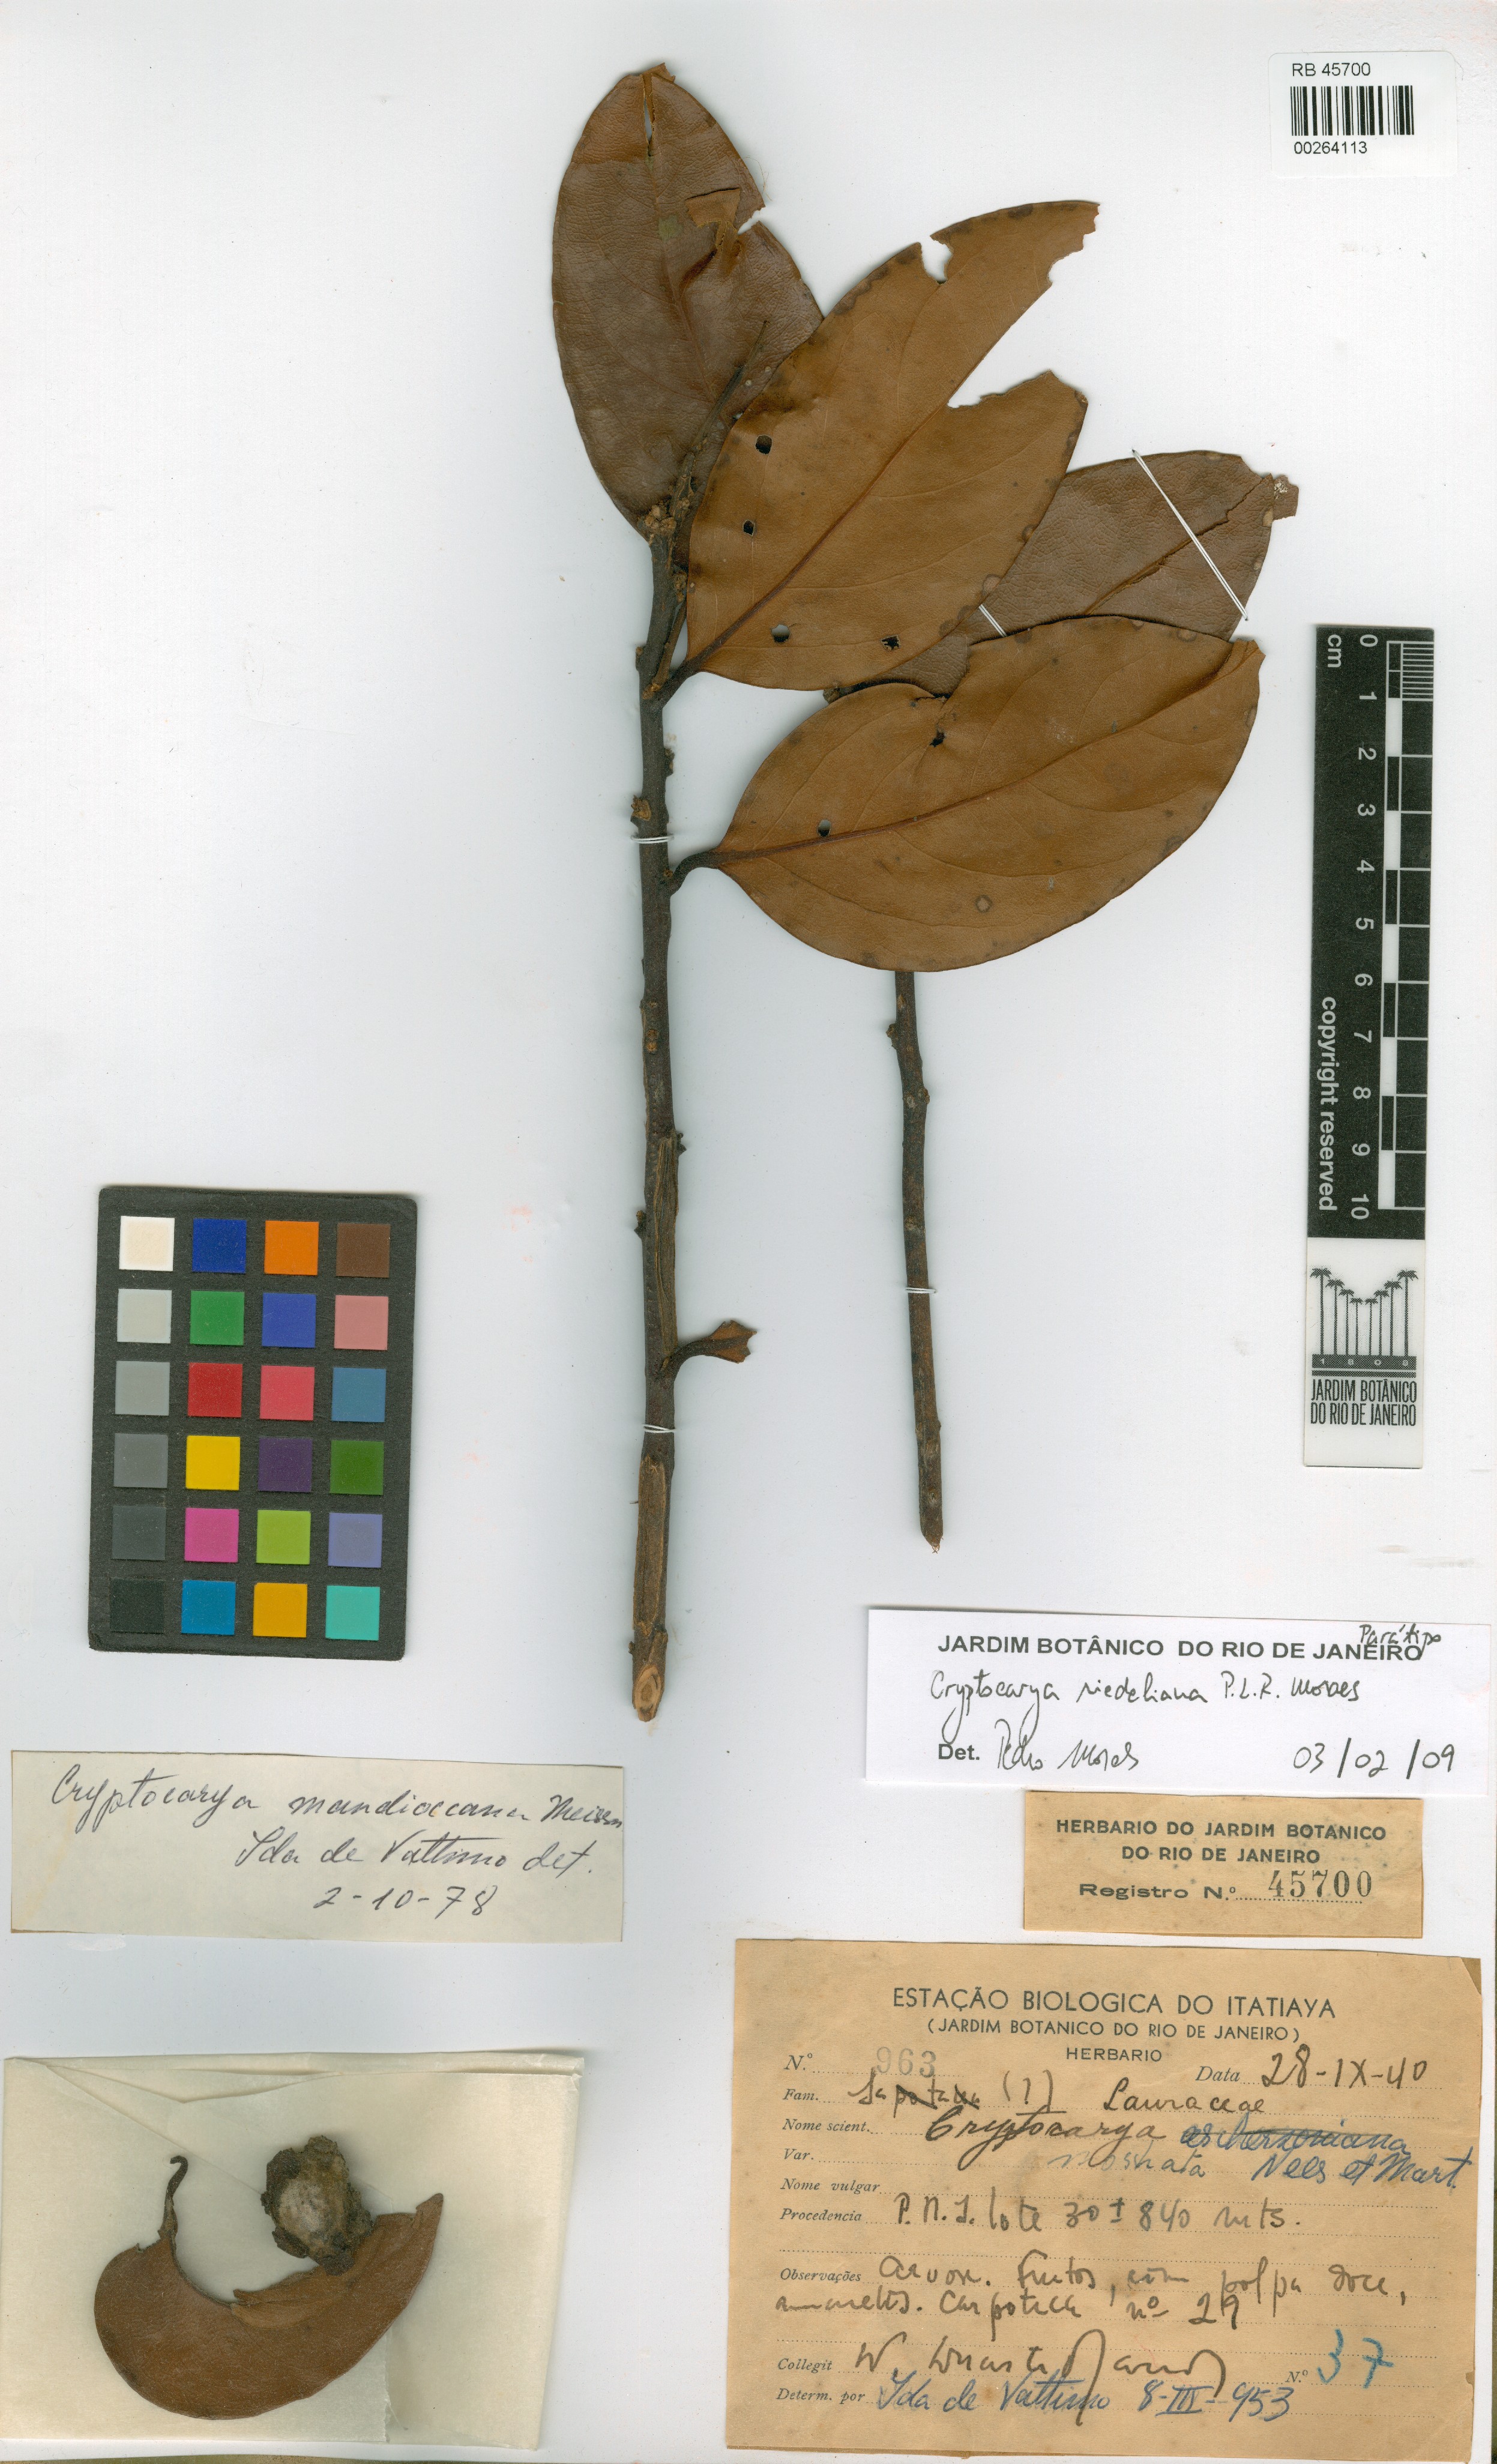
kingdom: Plantae
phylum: Tracheophyta
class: Magnoliopsida
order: Laurales
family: Lauraceae
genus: Cryptocarya
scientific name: Cryptocarya riedeliana
